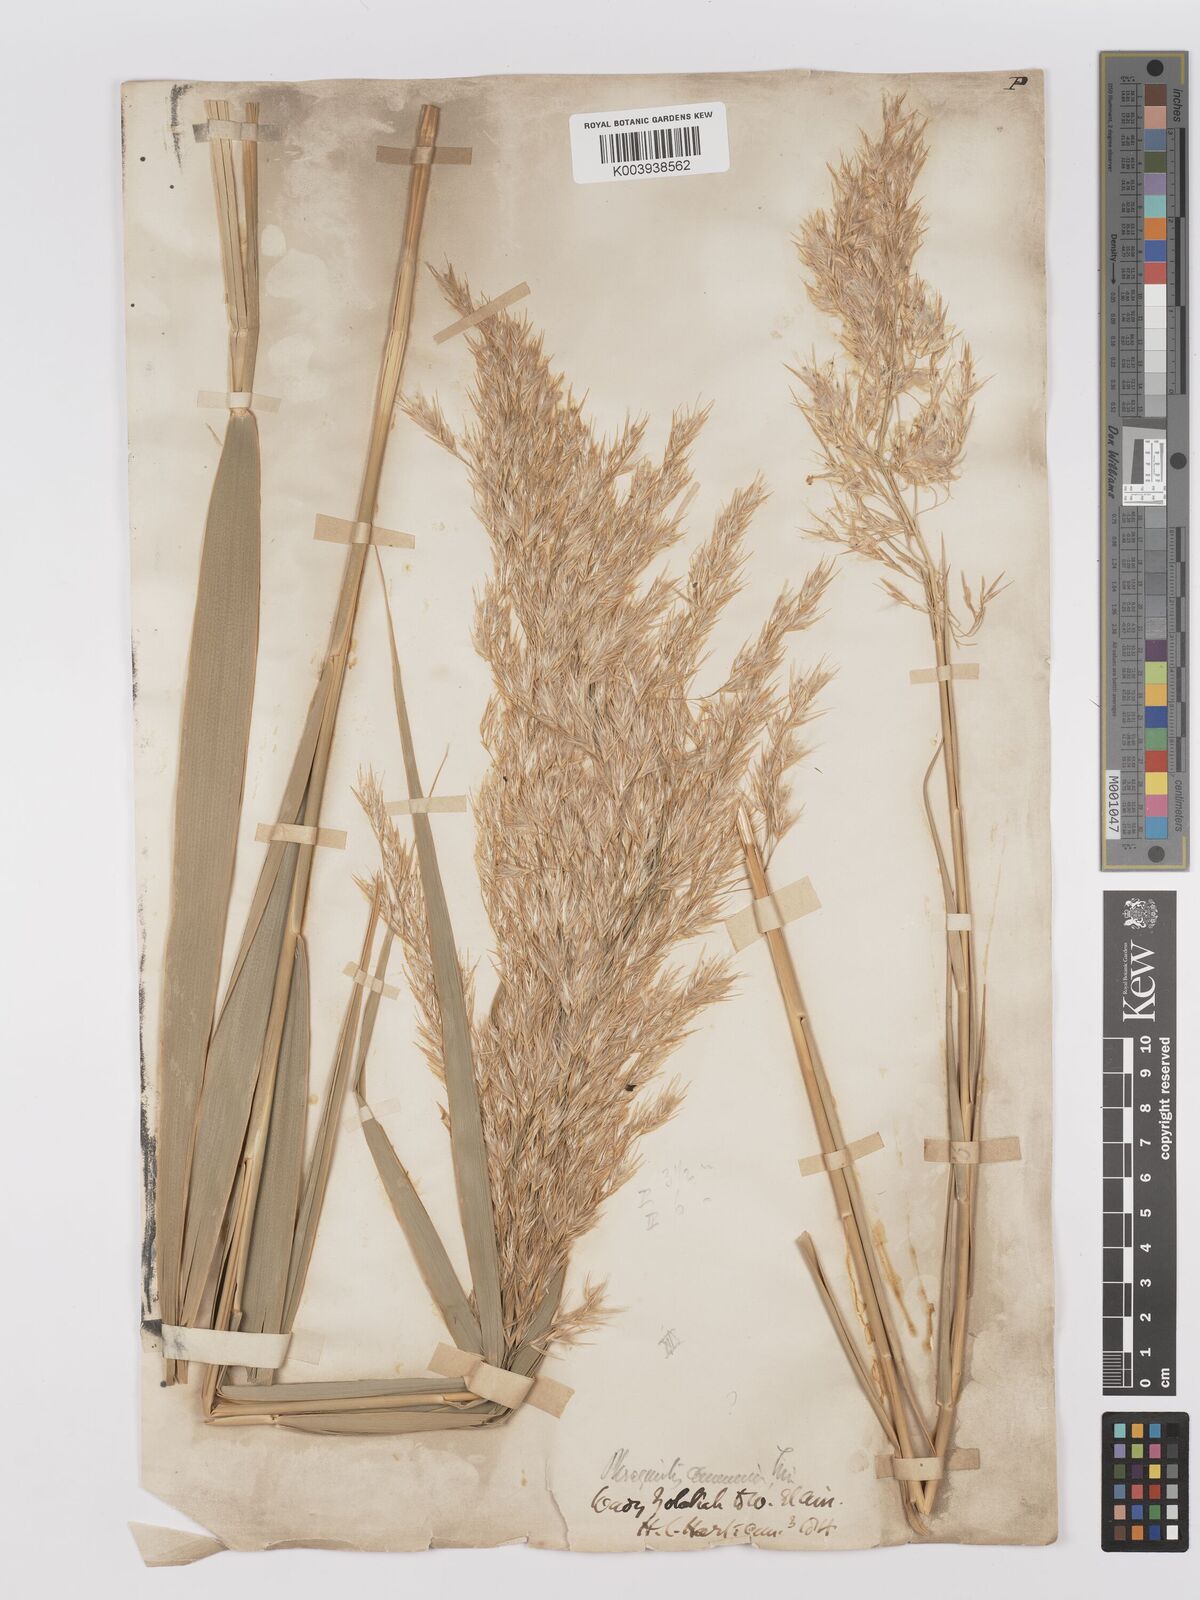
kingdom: Plantae
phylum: Tracheophyta
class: Liliopsida
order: Poales
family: Poaceae
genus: Phragmites
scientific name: Phragmites australis
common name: Common reed
